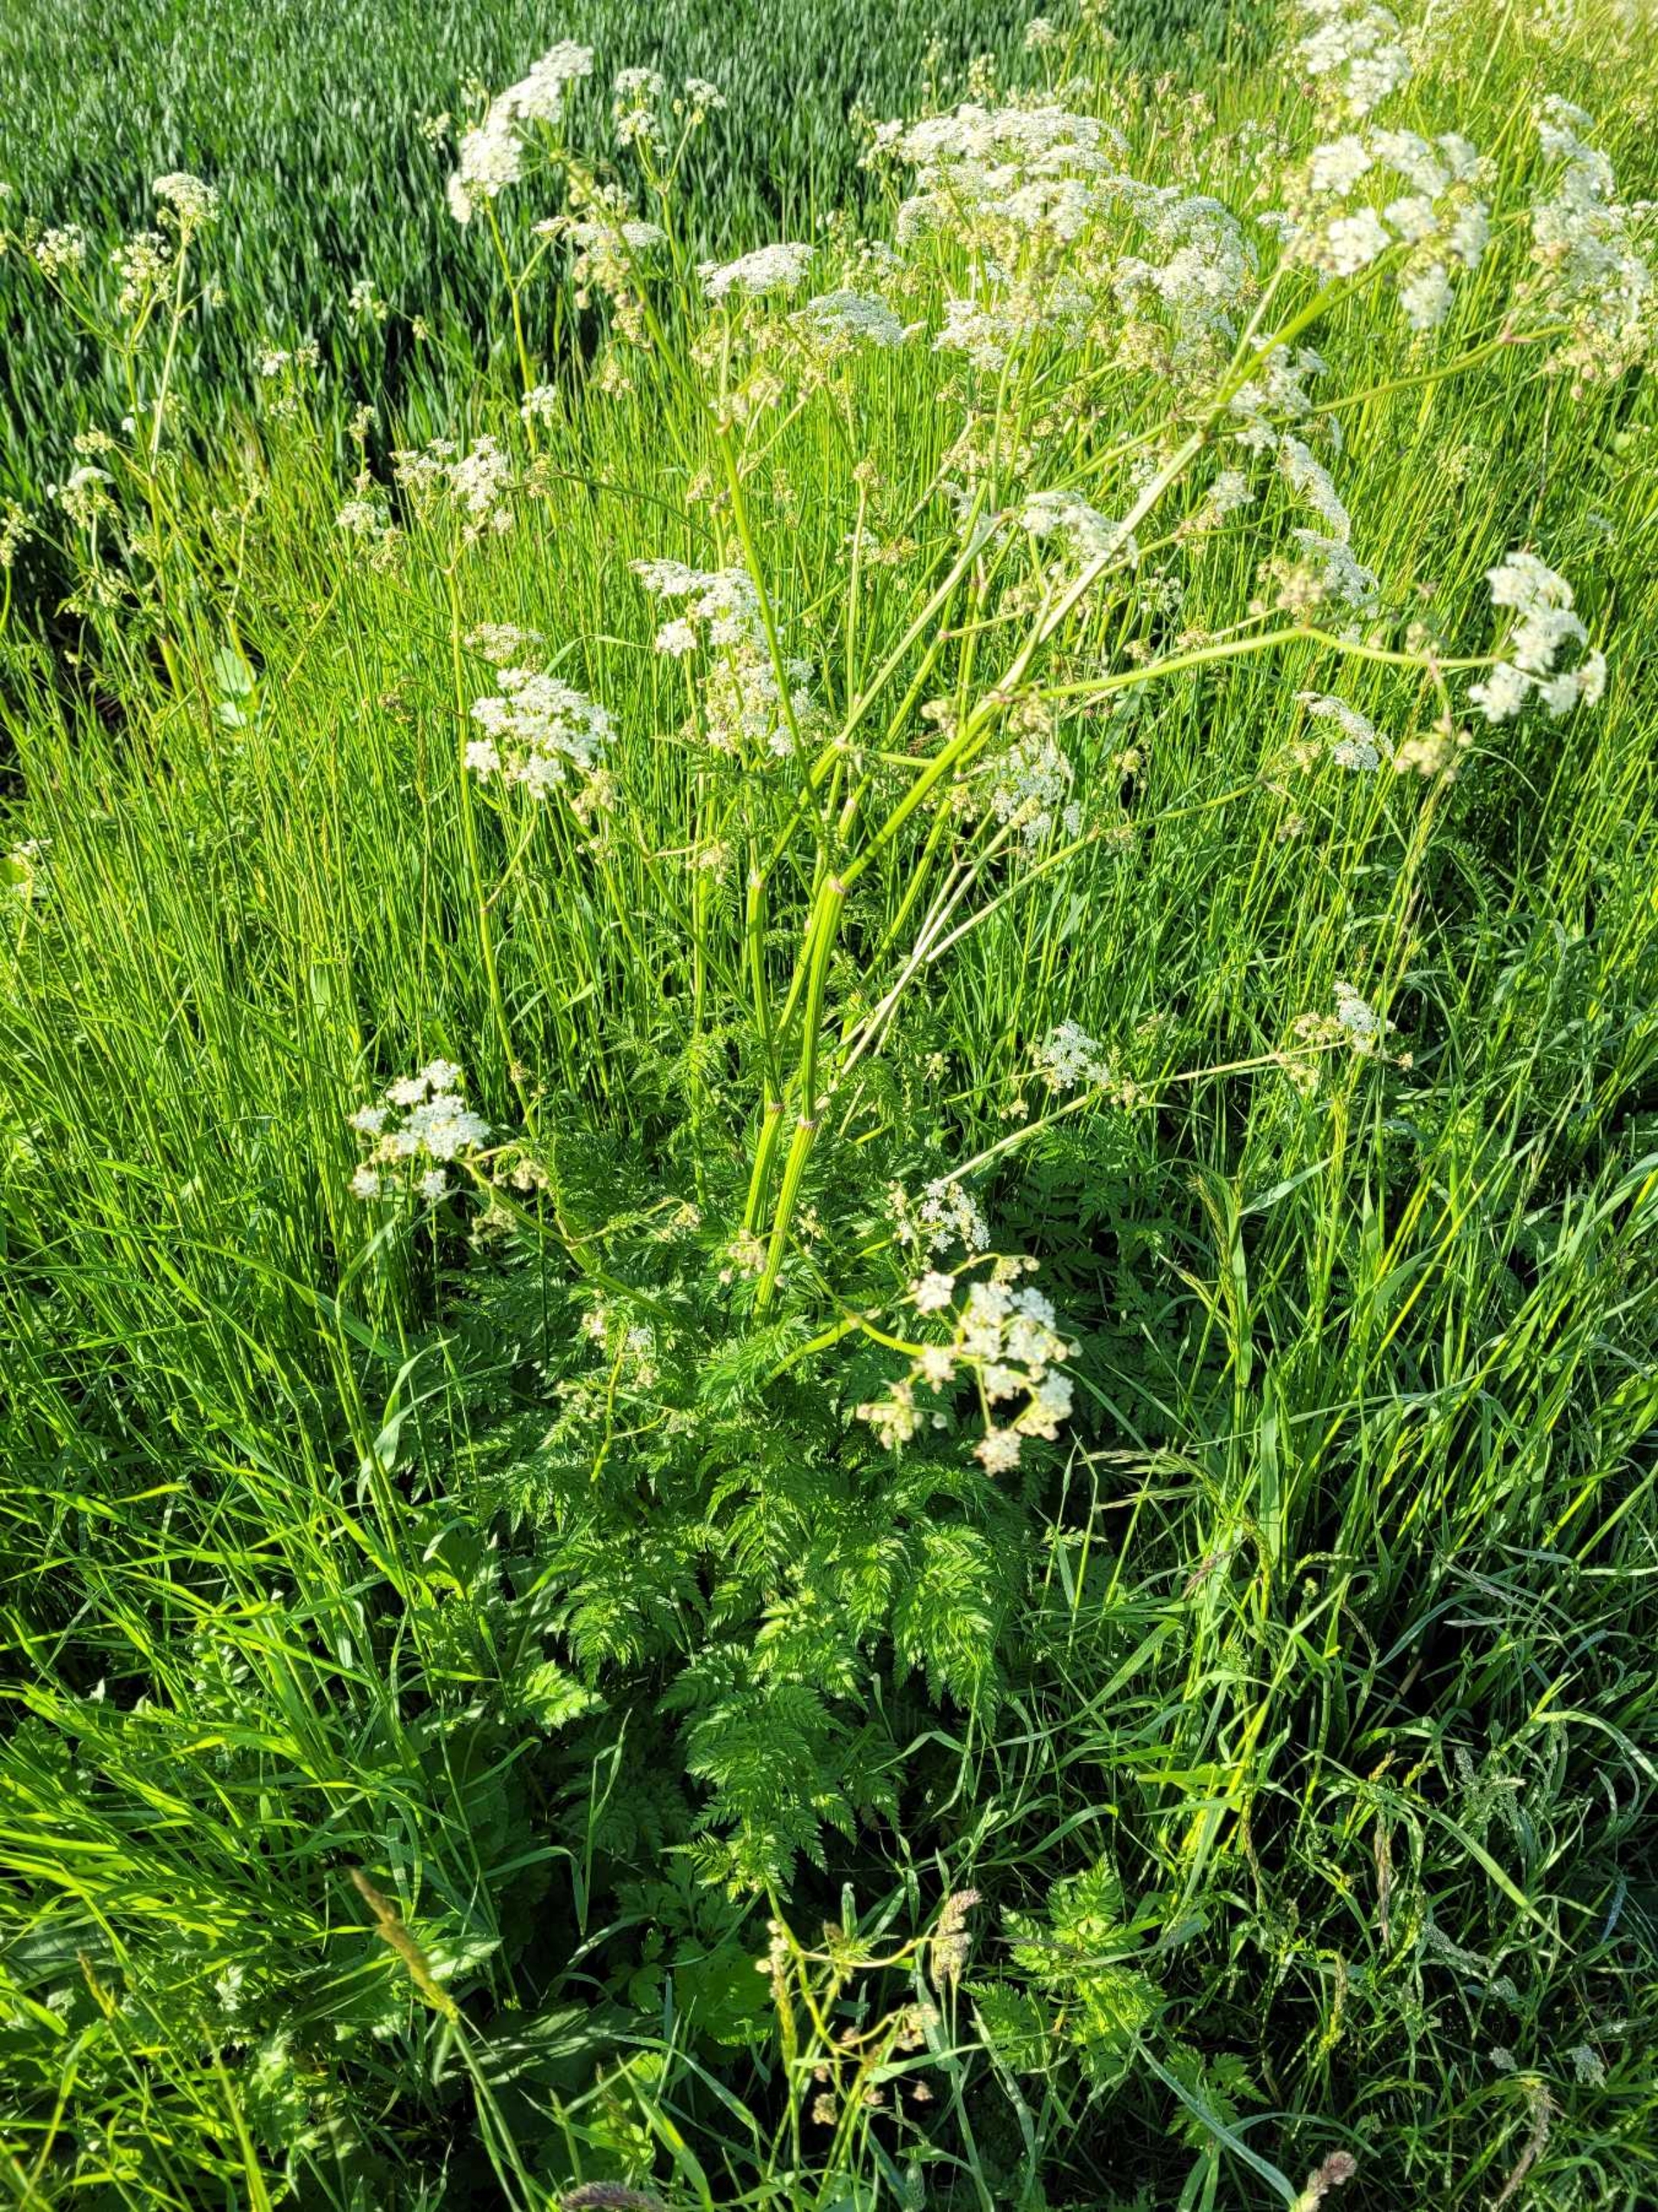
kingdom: Plantae
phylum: Tracheophyta
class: Magnoliopsida
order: Apiales
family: Apiaceae
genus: Anthriscus
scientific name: Anthriscus sylvestris
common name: Vild kørvel
